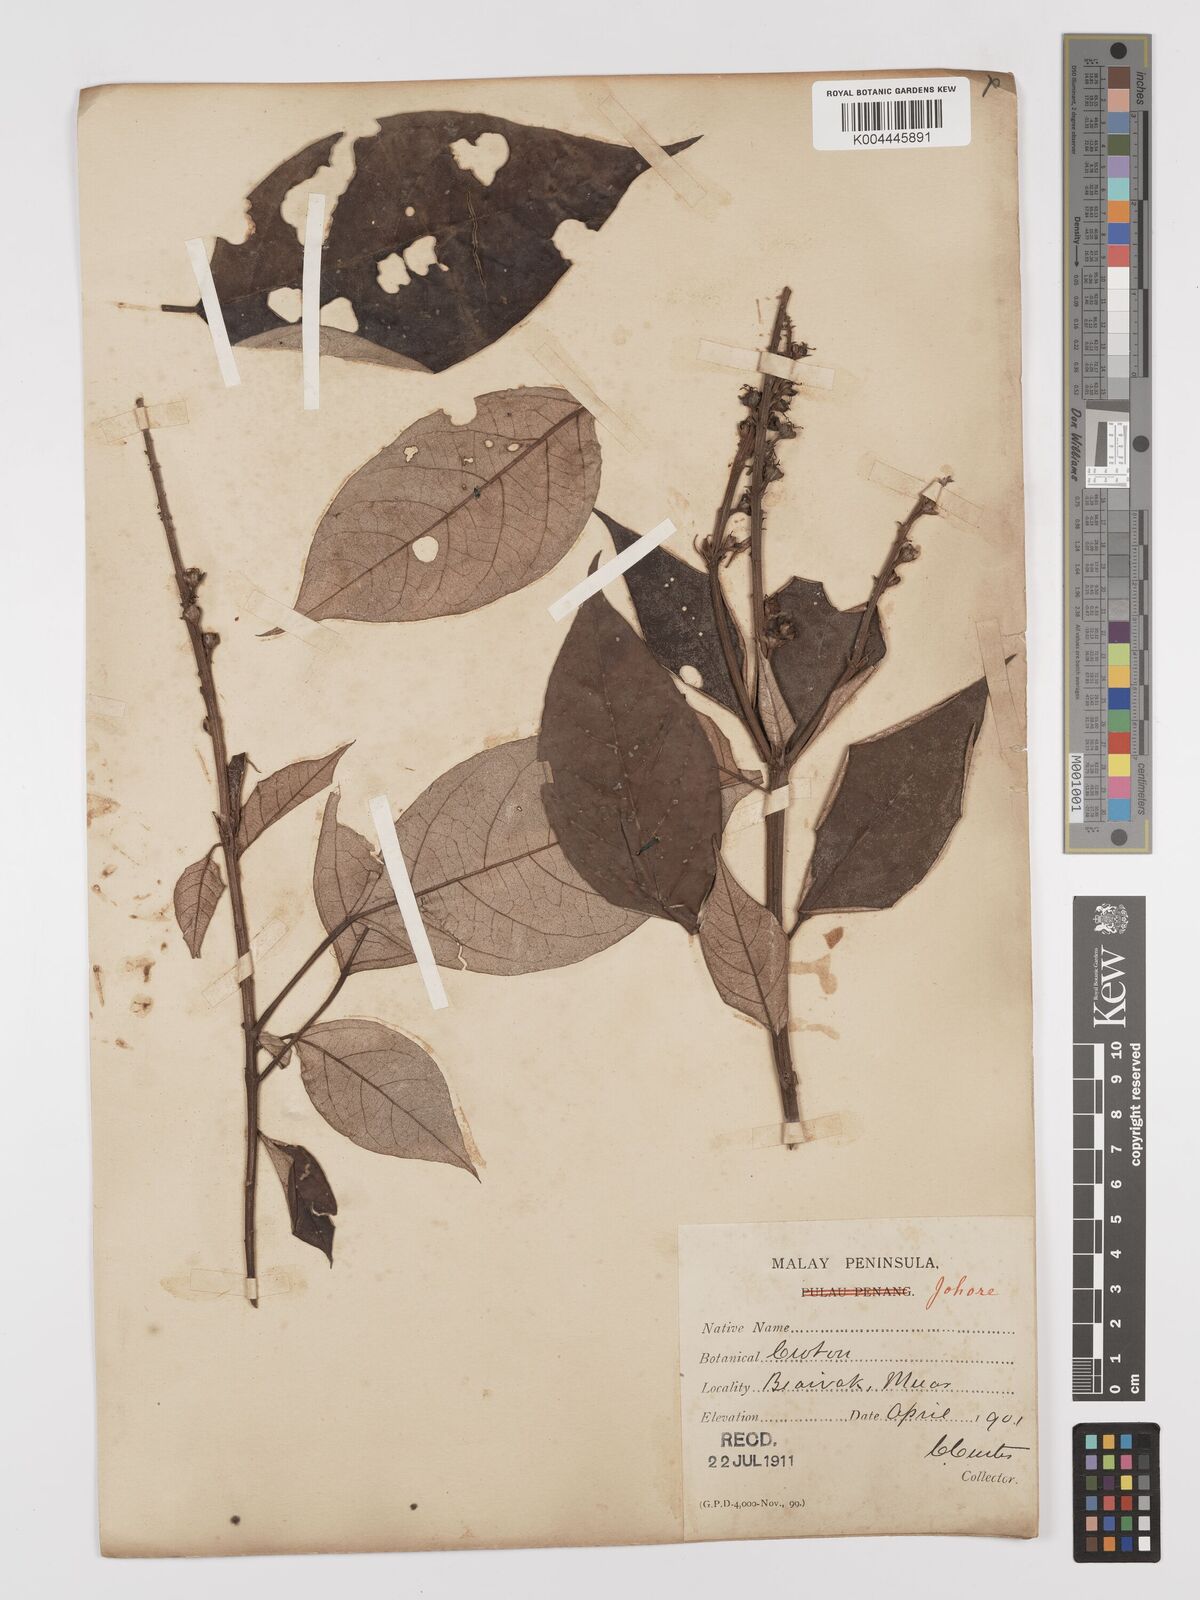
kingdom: Plantae
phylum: Tracheophyta
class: Magnoliopsida
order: Malpighiales
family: Euphorbiaceae
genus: Croton
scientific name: Croton argyratus
